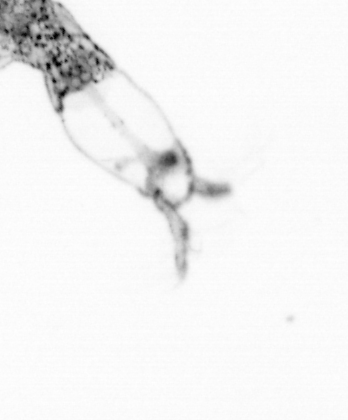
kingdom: Animalia
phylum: Arthropoda
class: Copepoda
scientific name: Copepoda
